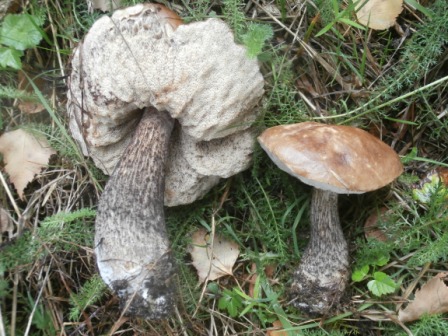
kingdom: Fungi
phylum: Basidiomycota
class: Agaricomycetes
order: Boletales
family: Boletaceae
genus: Leccinum
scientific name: Leccinum scabrum
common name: brun skælrørhat
